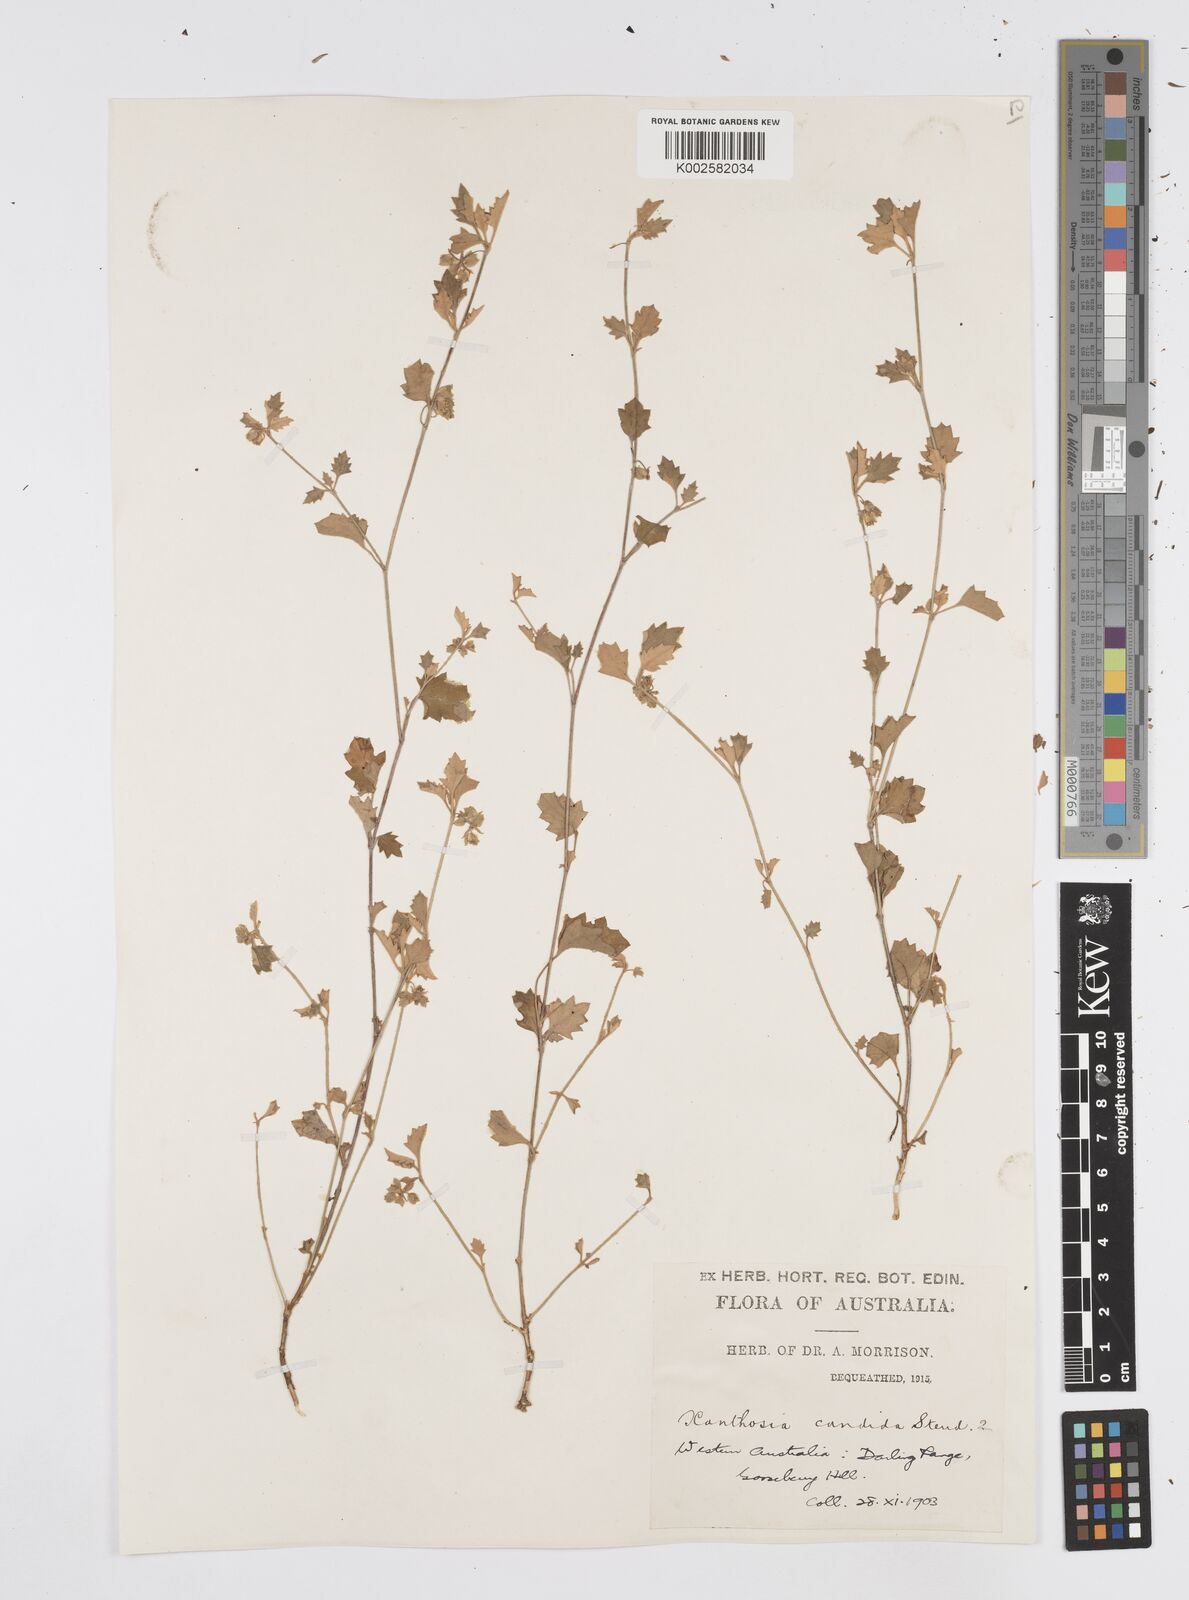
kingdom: Plantae
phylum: Tracheophyta
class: Magnoliopsida
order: Apiales
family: Apiaceae
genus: Xanthosia
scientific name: Xanthosia candida
